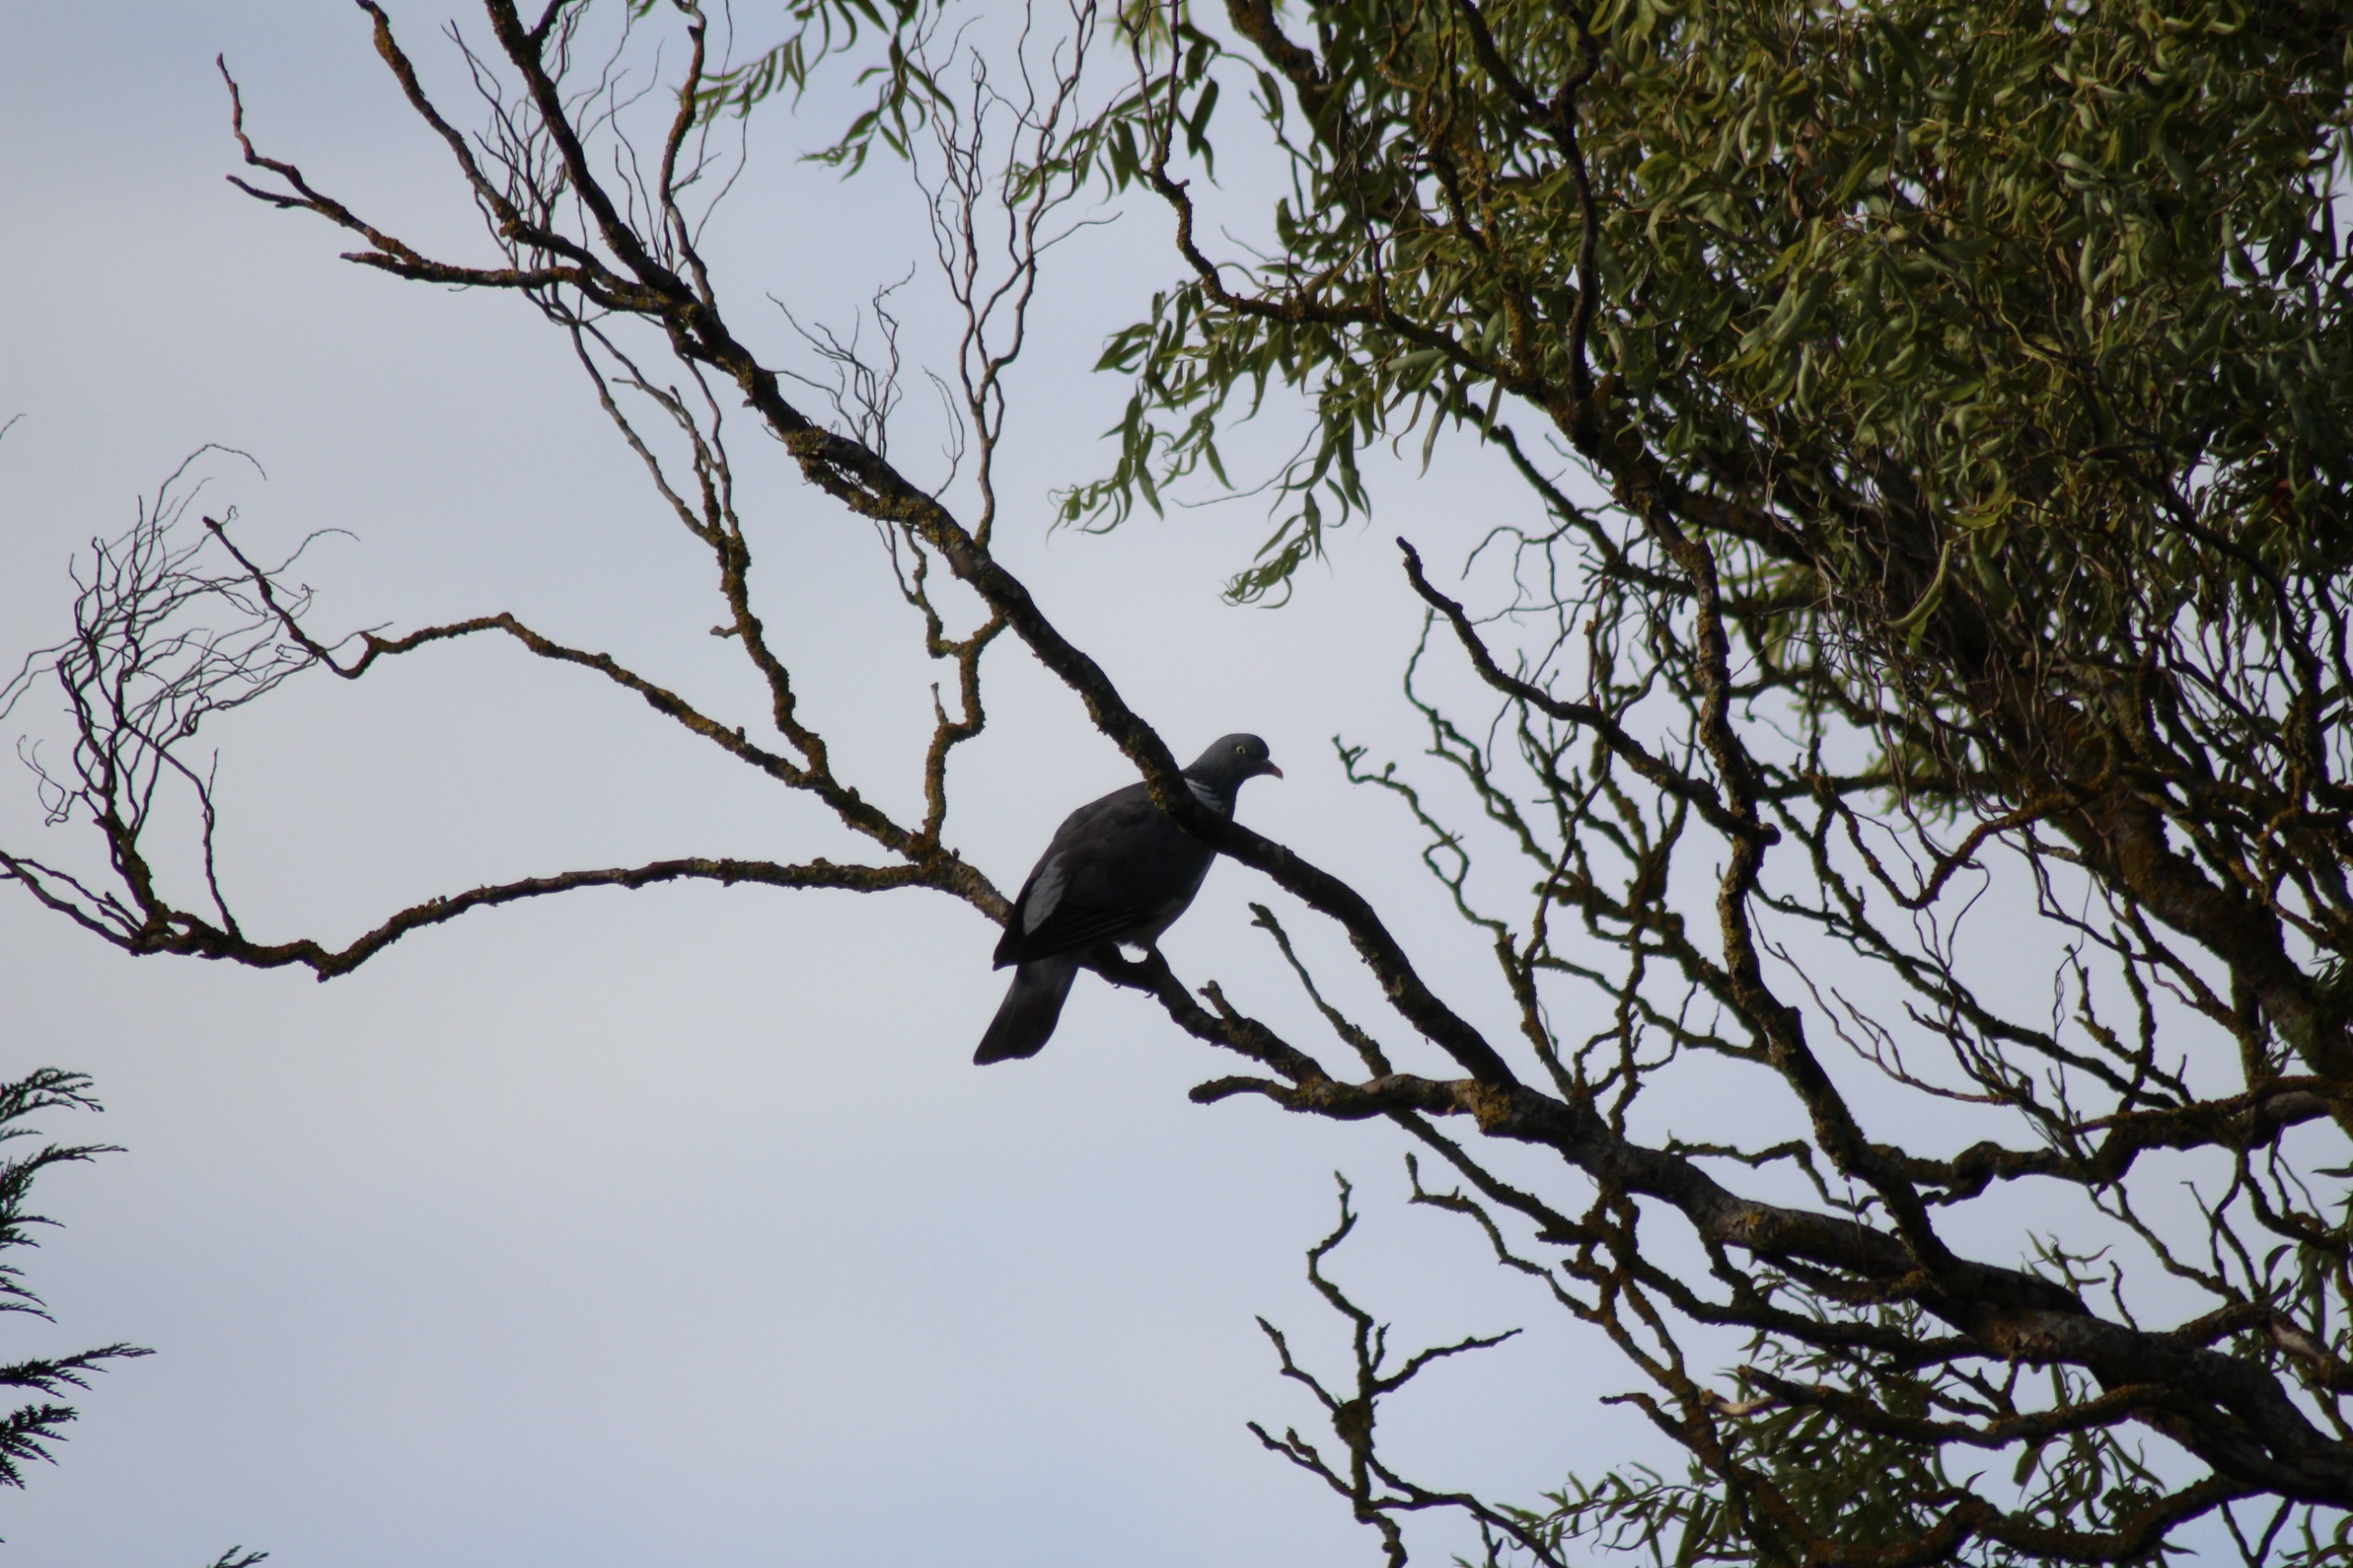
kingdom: Animalia
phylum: Chordata
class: Aves
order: Columbiformes
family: Columbidae
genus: Columba
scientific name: Columba palumbus
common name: Ringdue
